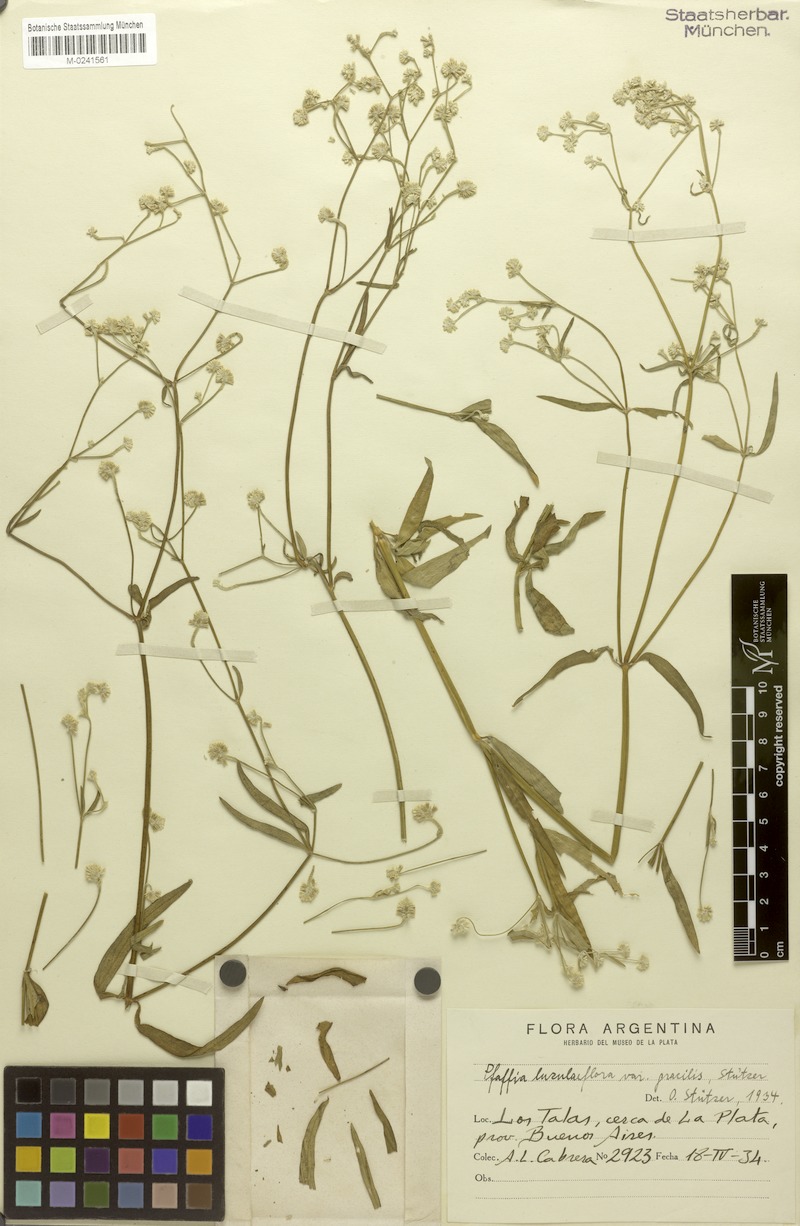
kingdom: Plantae
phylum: Tracheophyta
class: Magnoliopsida
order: Caryophyllales
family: Amaranthaceae
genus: Pfaffia
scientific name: Pfaffia glomerata
